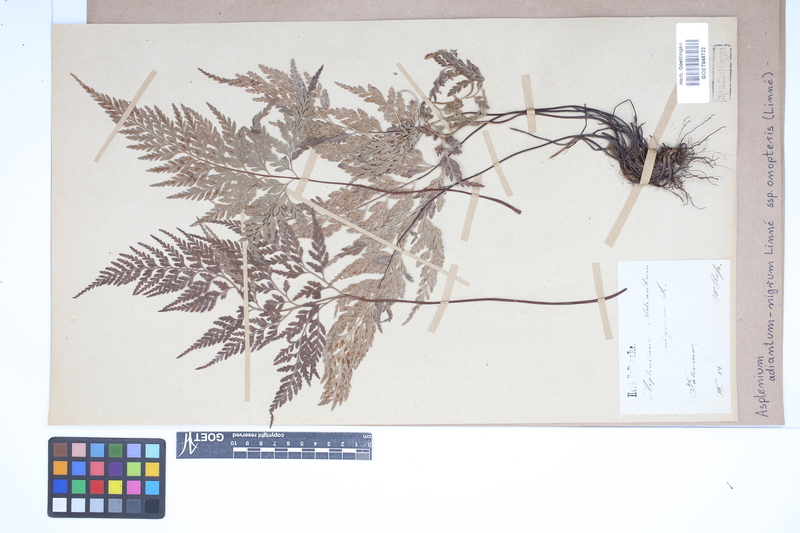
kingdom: Plantae
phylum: Tracheophyta
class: Polypodiopsida
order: Polypodiales
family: Aspleniaceae
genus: Asplenium
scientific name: Asplenium onopteris
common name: Irish spleenwort
